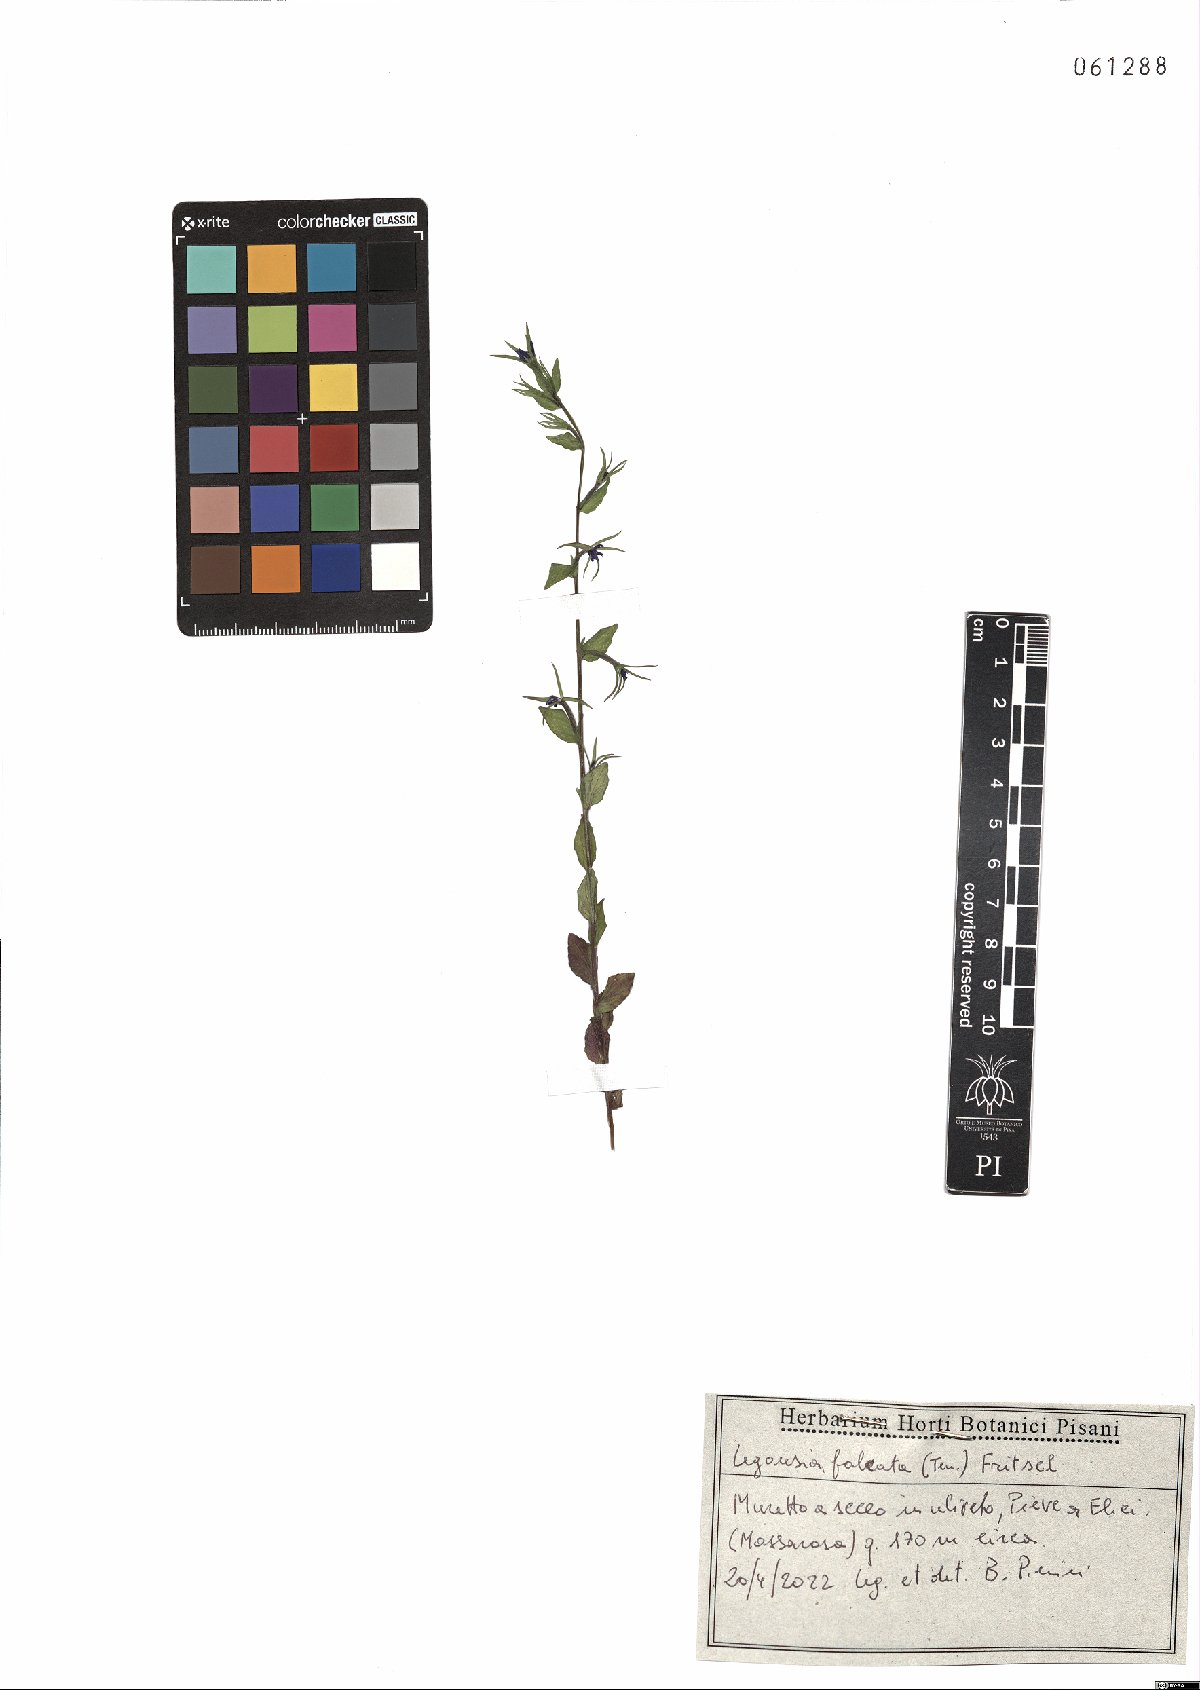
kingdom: Plantae
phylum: Tracheophyta
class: Magnoliopsida
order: Asterales
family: Campanulaceae
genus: Legousia
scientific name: Legousia falcata
